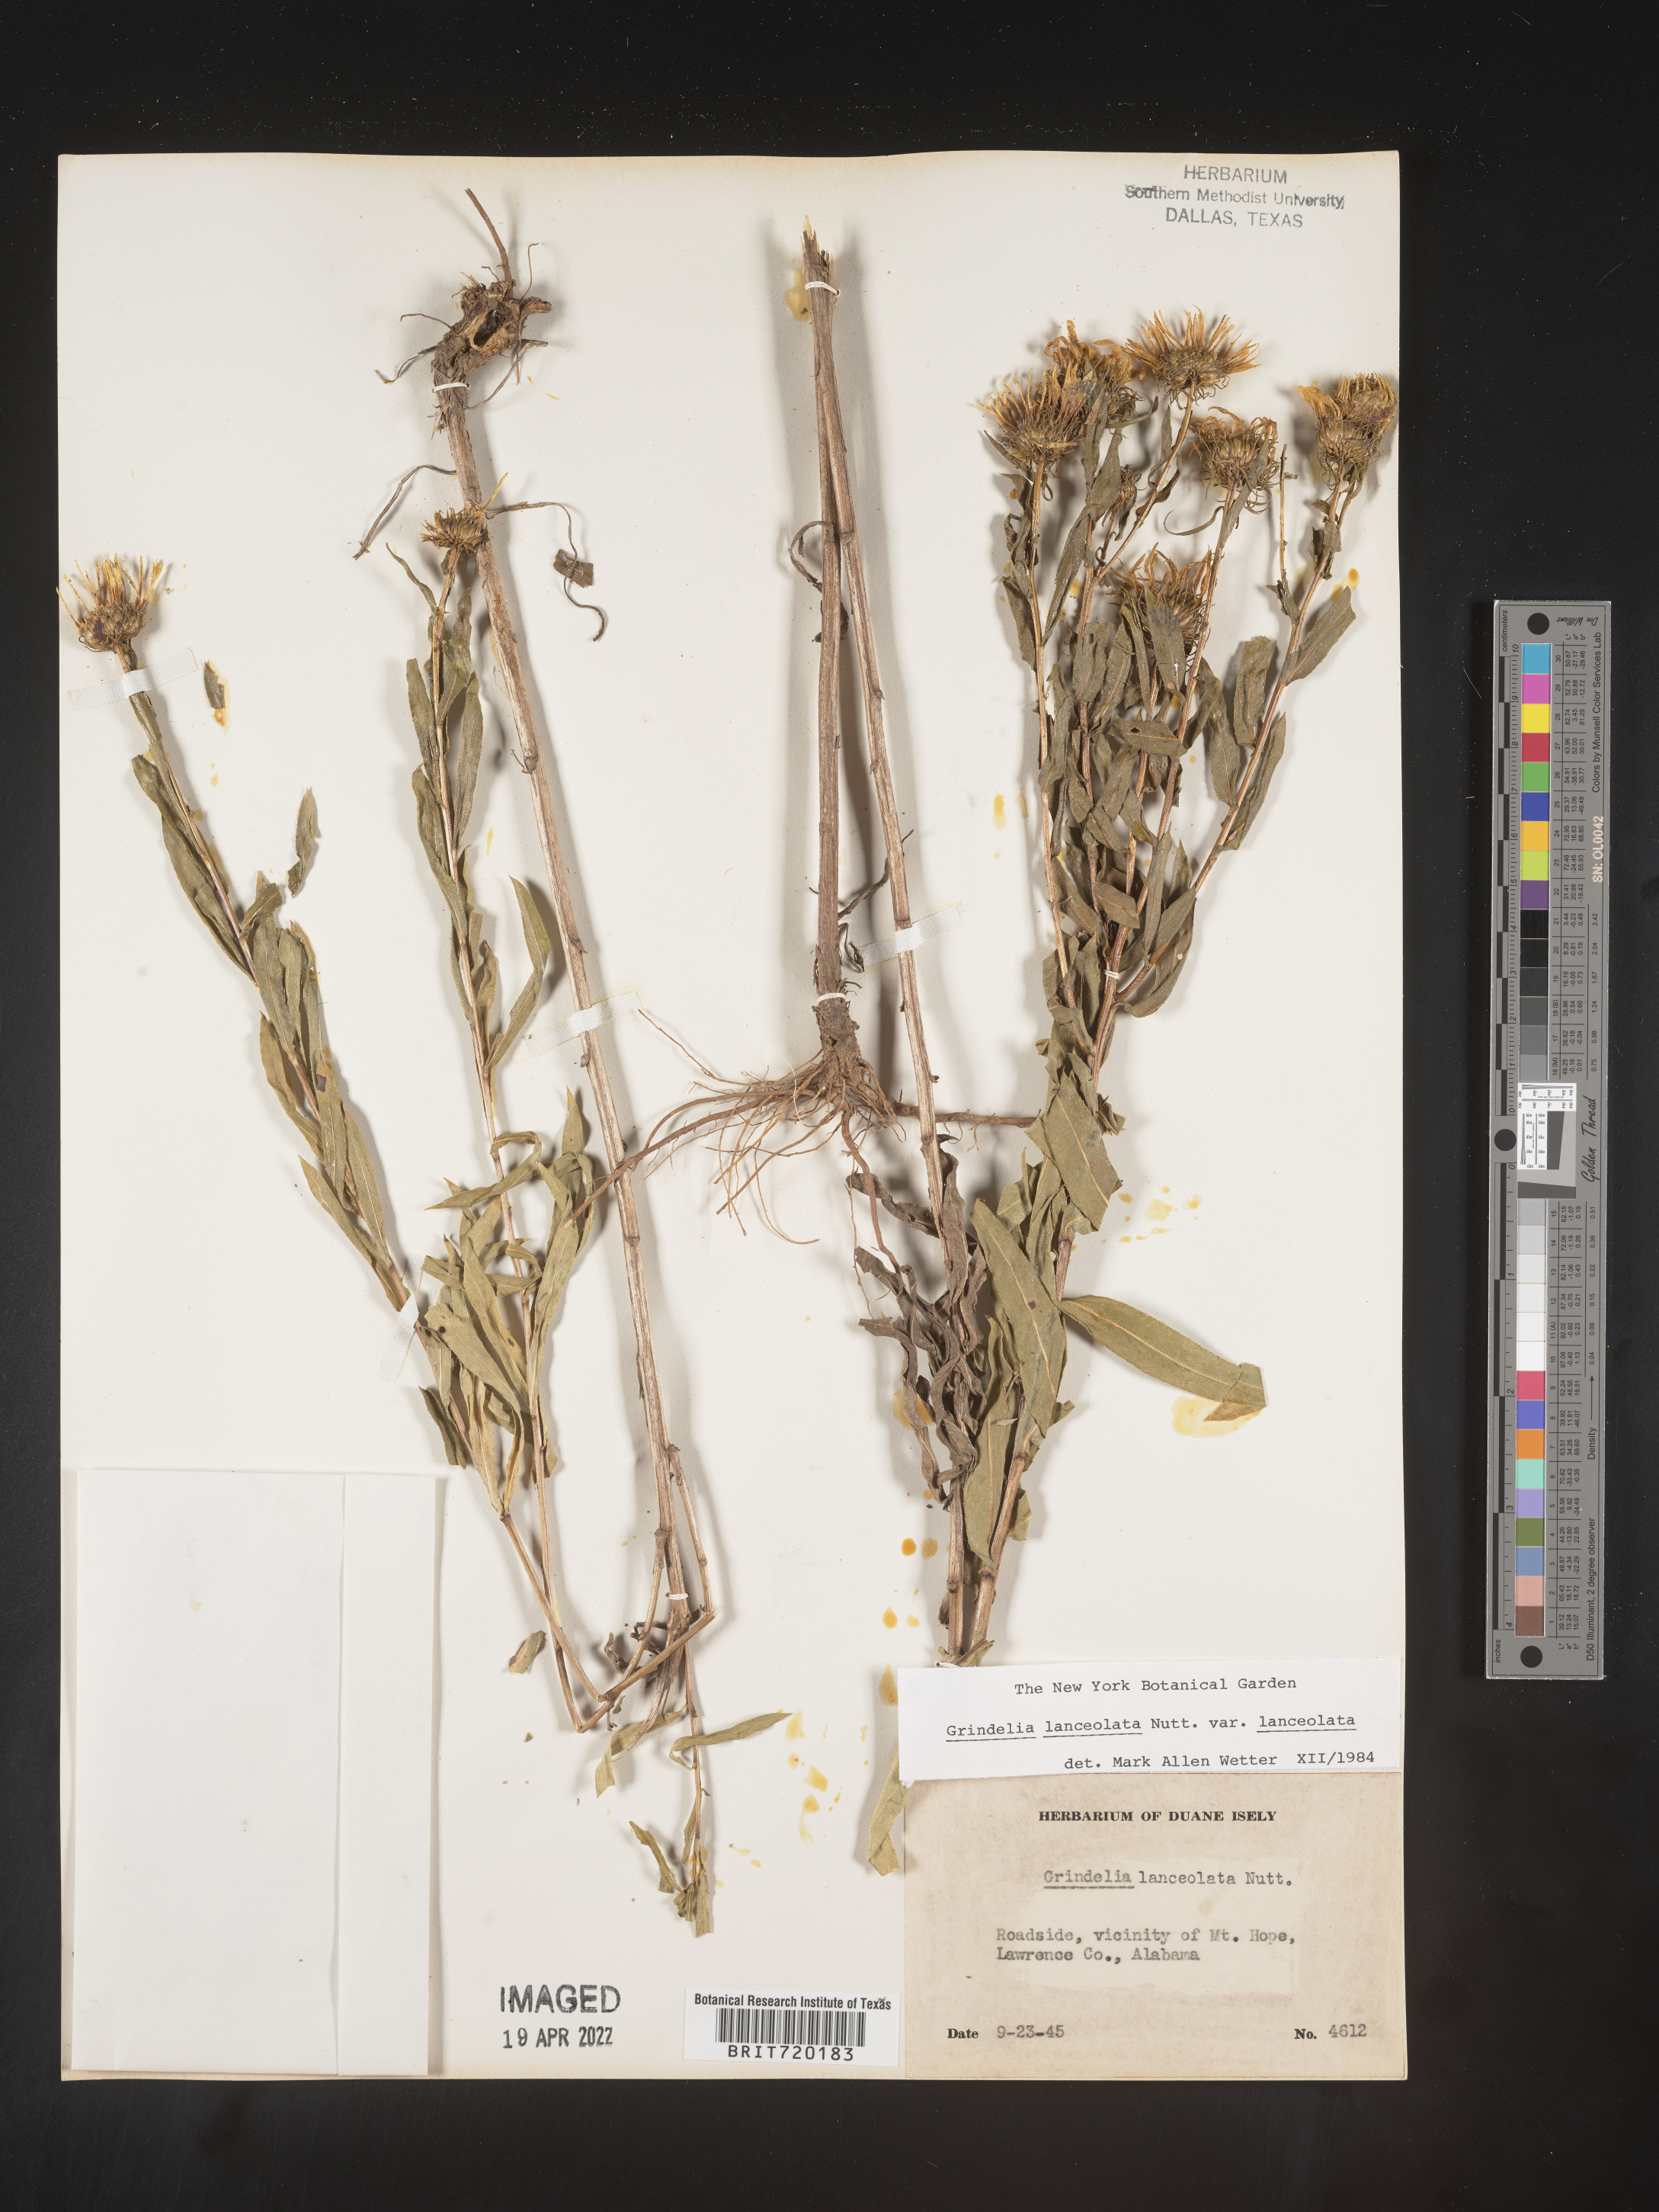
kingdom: Plantae
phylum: Tracheophyta
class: Magnoliopsida
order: Asterales
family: Asteraceae
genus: Grindelia
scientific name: Grindelia lanceolata
